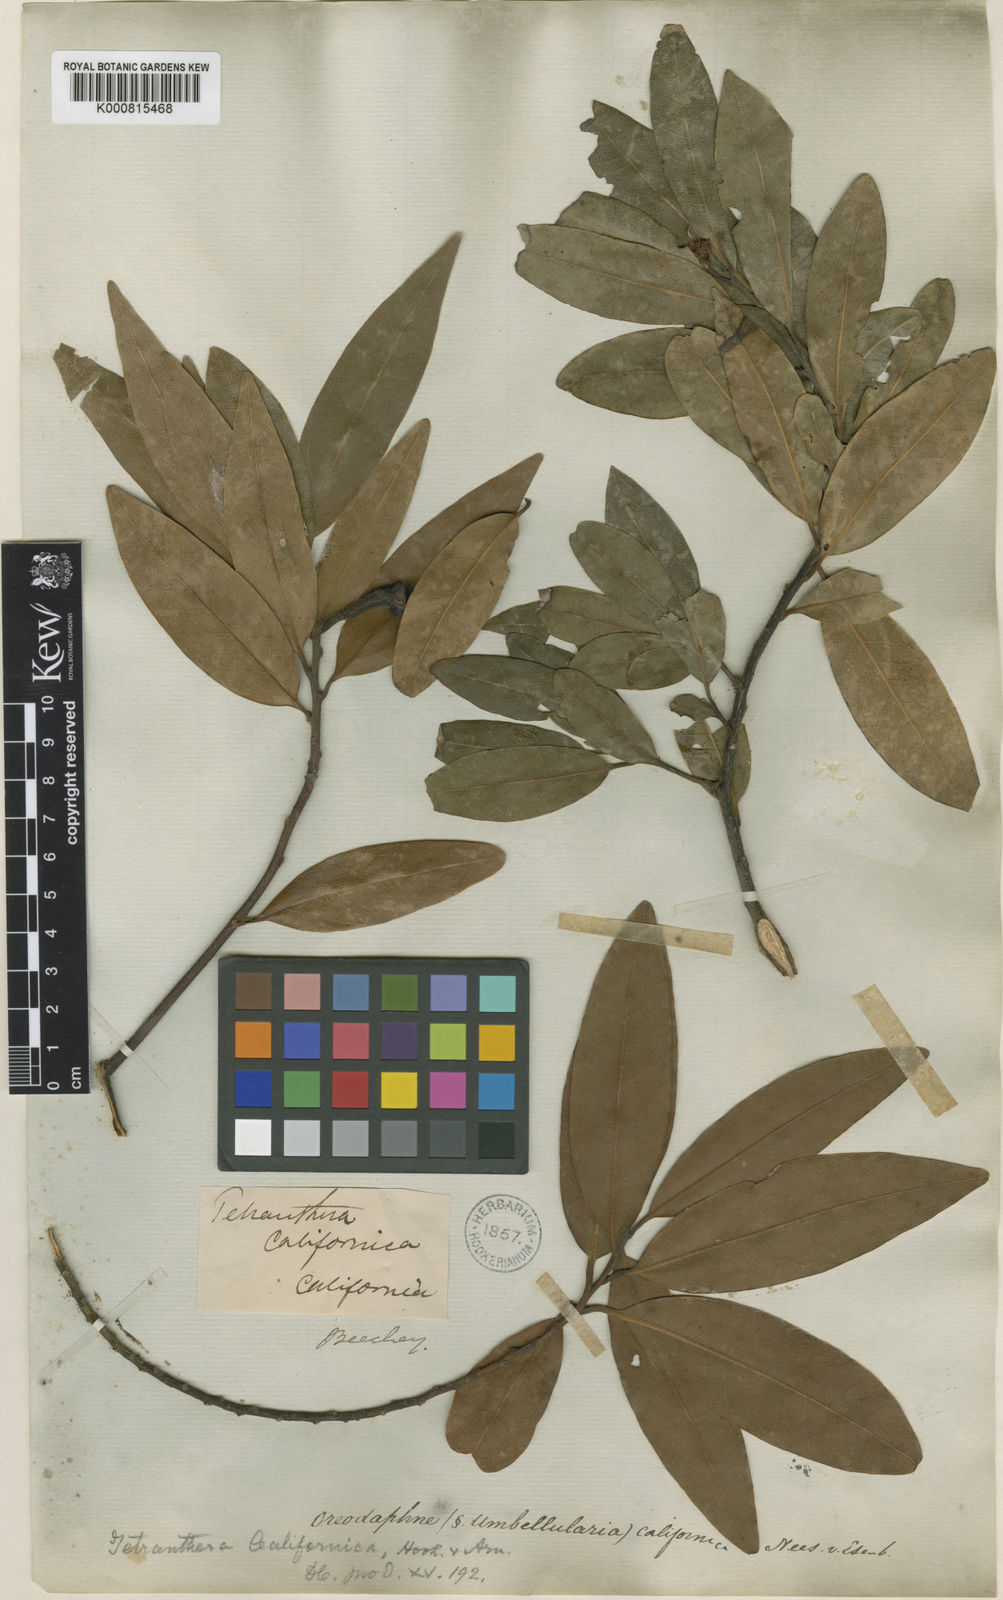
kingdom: Plantae
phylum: Tracheophyta
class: Magnoliopsida
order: Laurales
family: Lauraceae
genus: Umbellularia
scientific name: Umbellularia californica
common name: California bay
